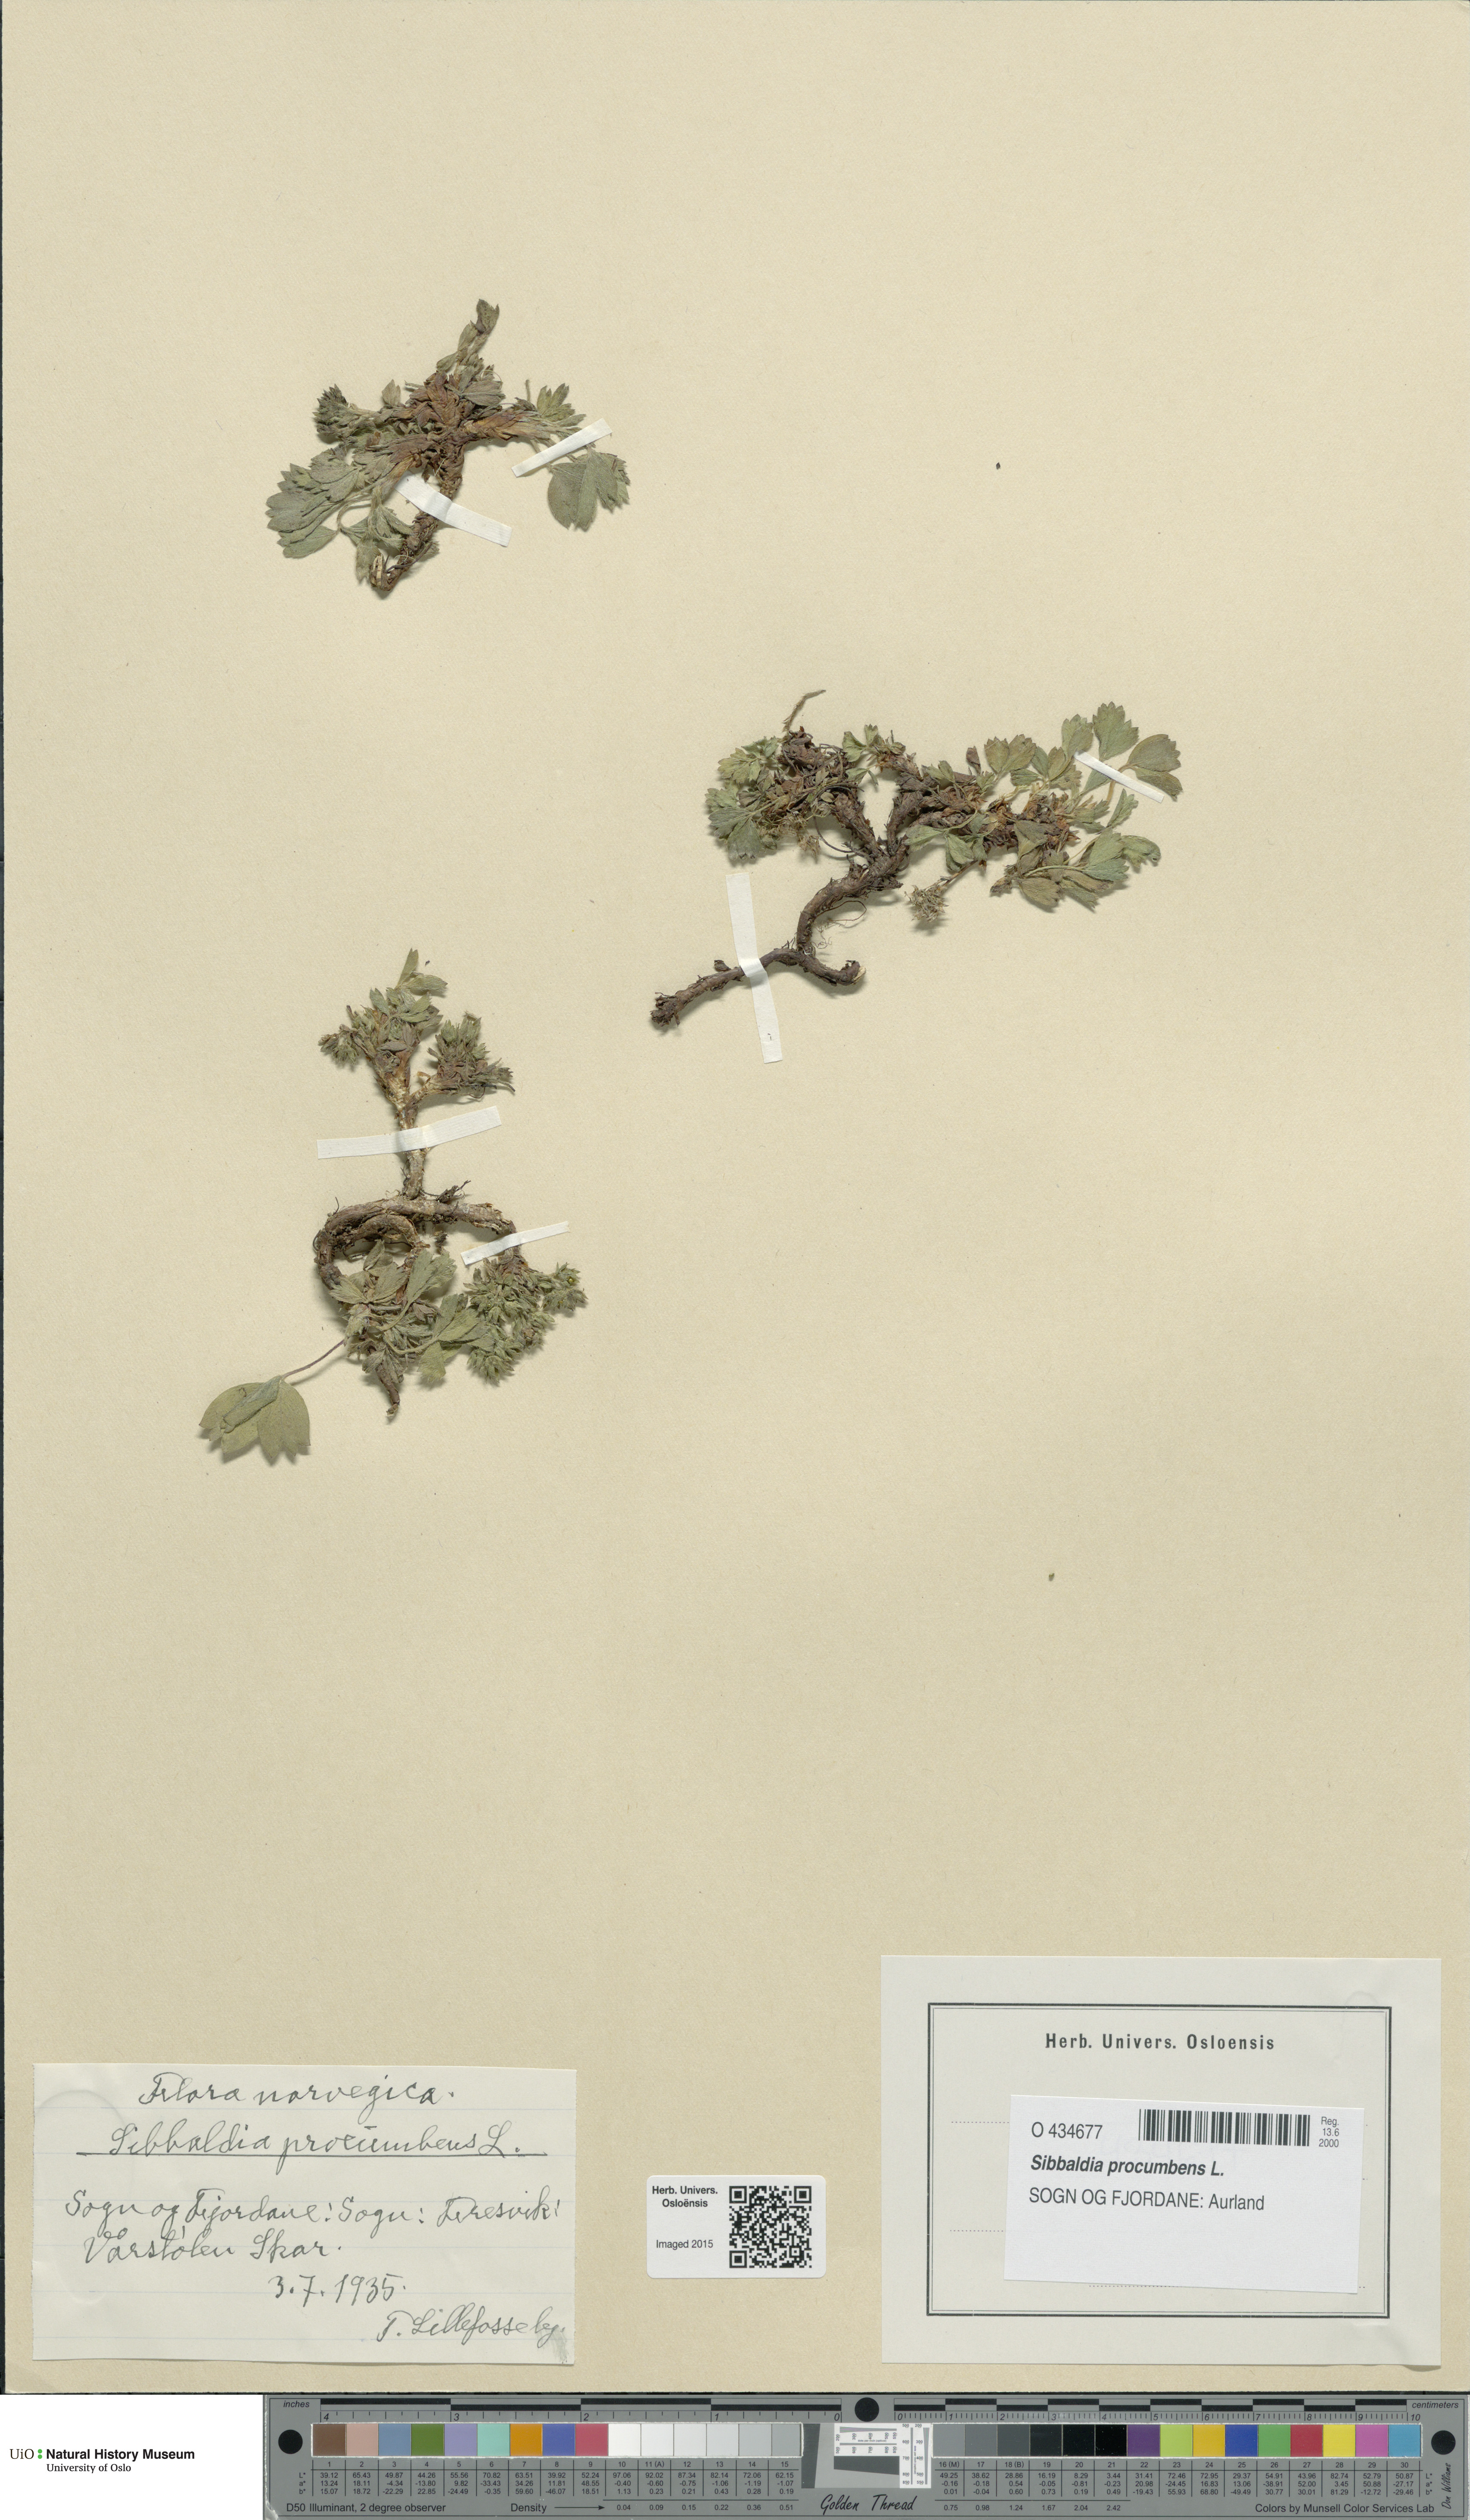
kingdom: Plantae
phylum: Tracheophyta
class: Magnoliopsida
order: Rosales
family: Rosaceae
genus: Sibbaldia
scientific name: Sibbaldia procumbens
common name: Creeping sibbaldia
